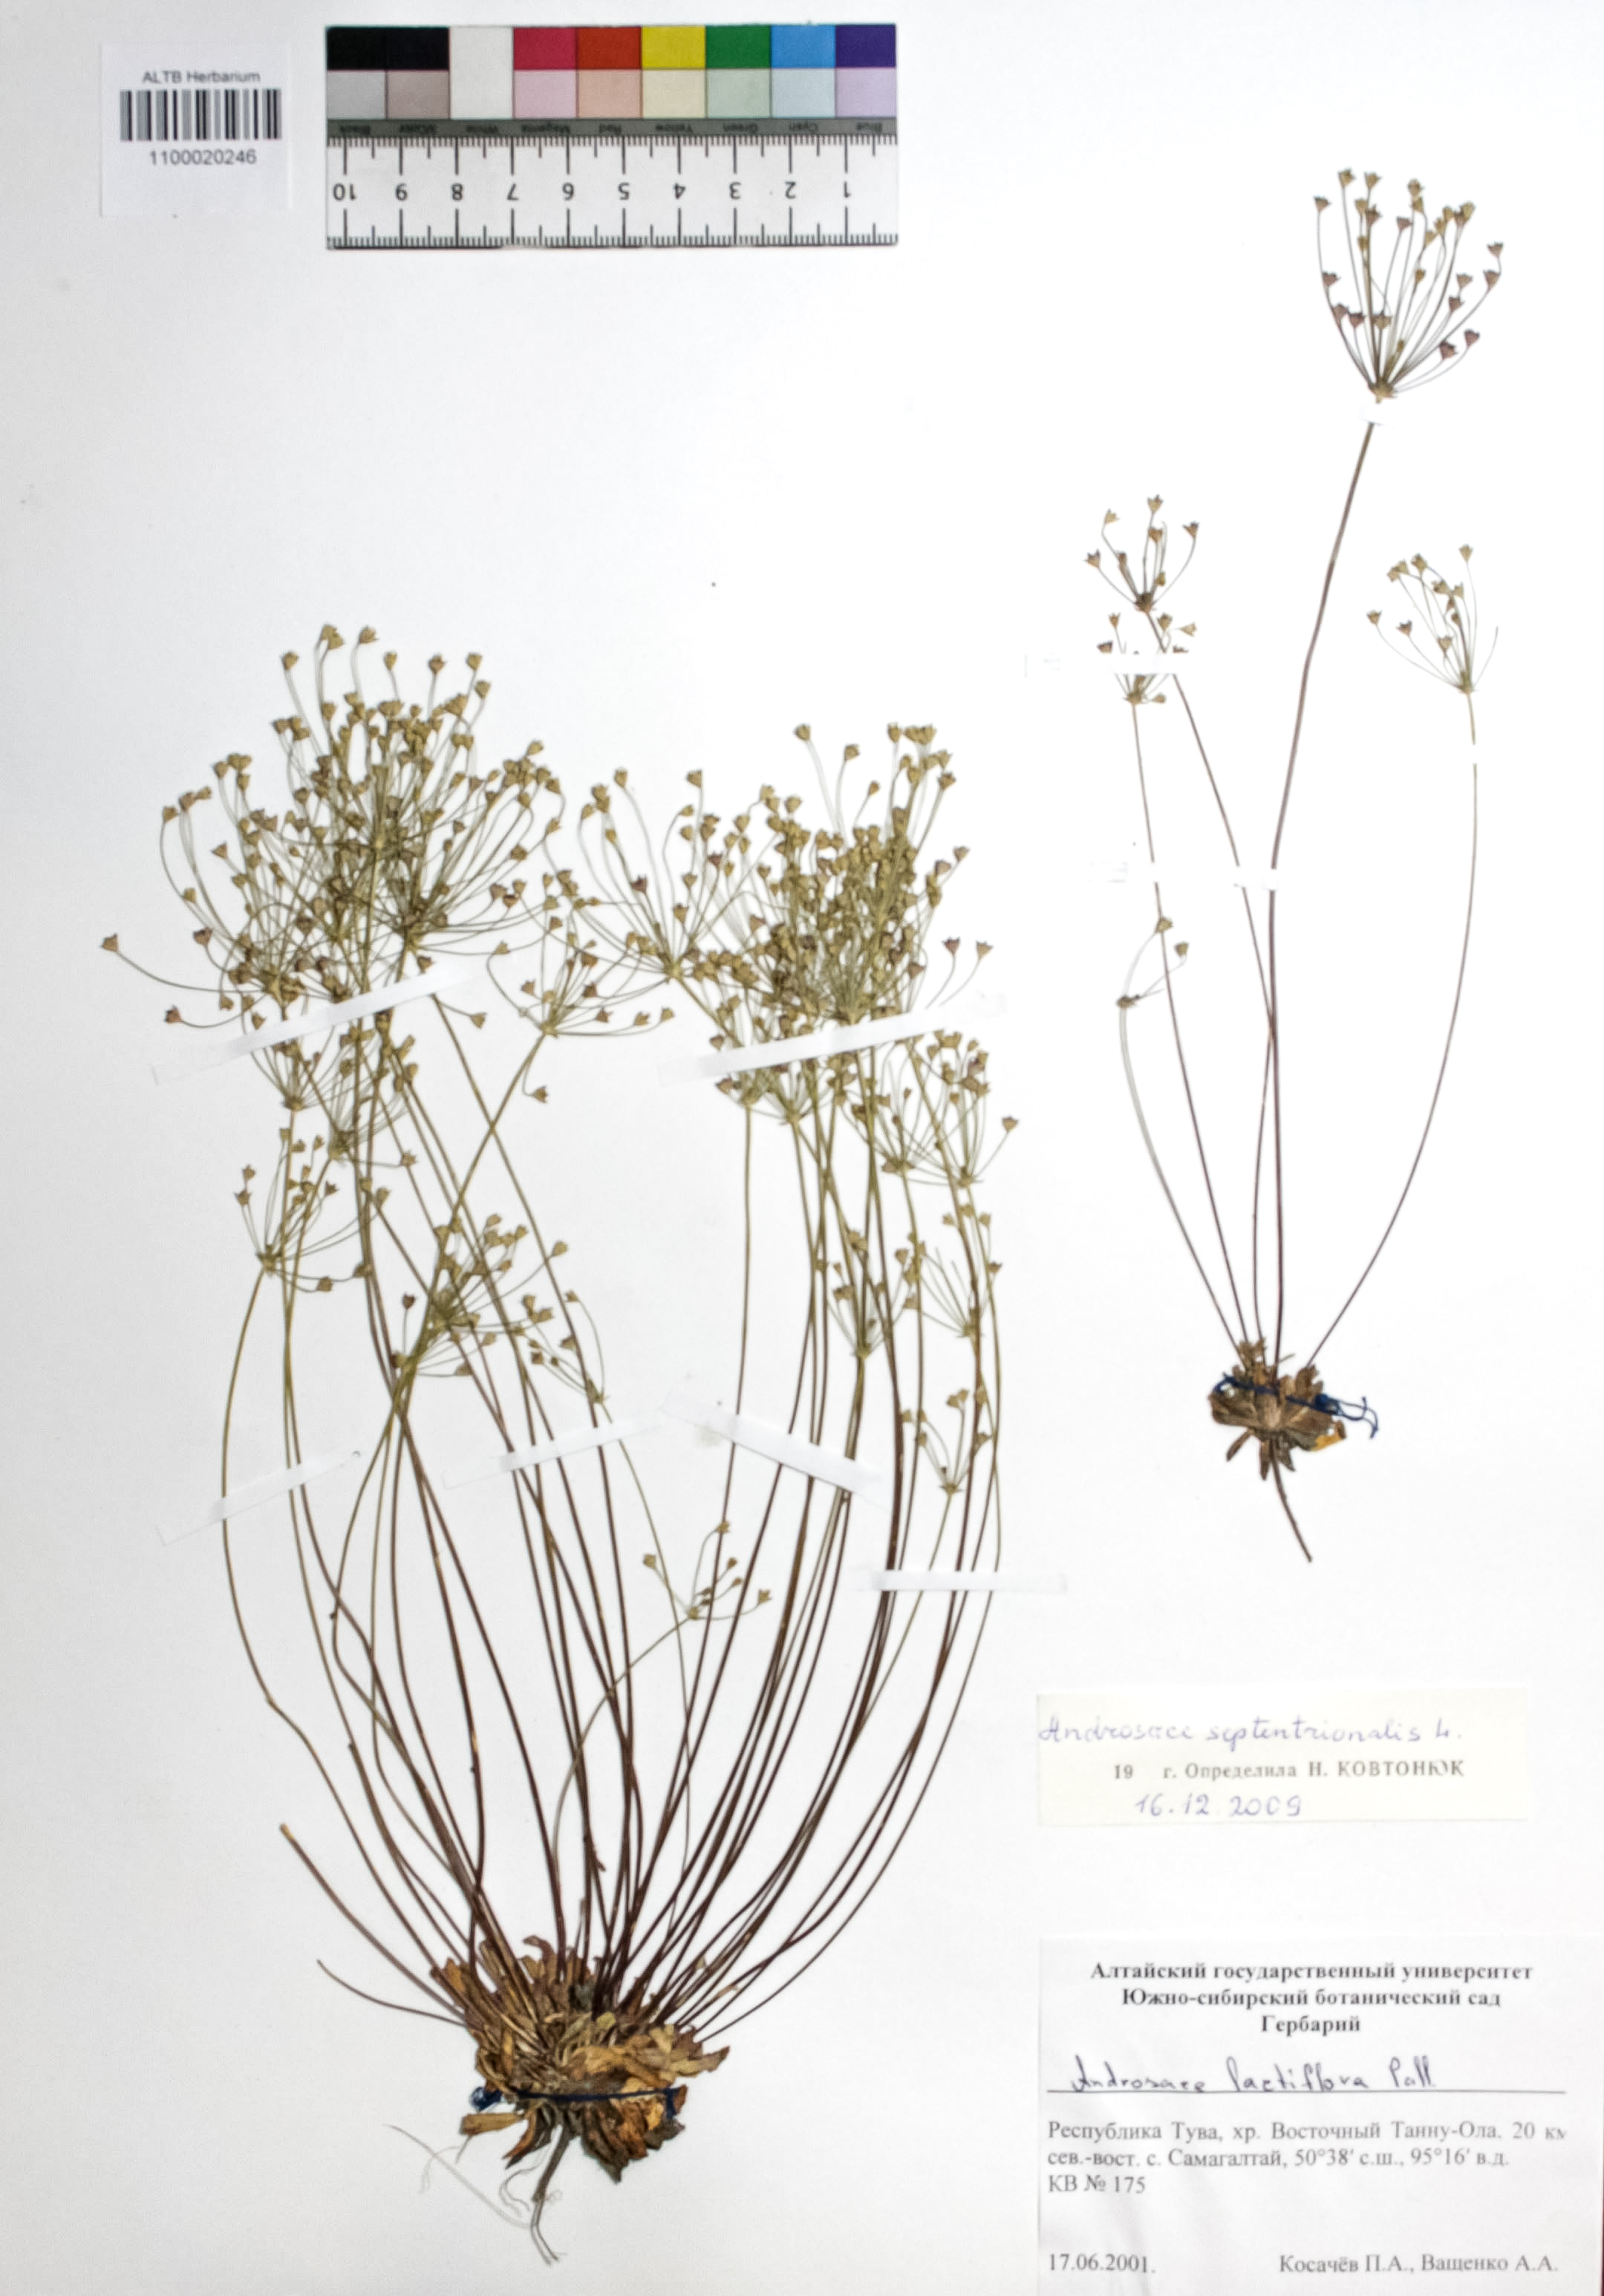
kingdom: Plantae
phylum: Tracheophyta
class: Magnoliopsida
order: Ericales
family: Primulaceae
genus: Androsace
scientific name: Androsace septentrionalis
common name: Hairy northern fairy-candelabra
